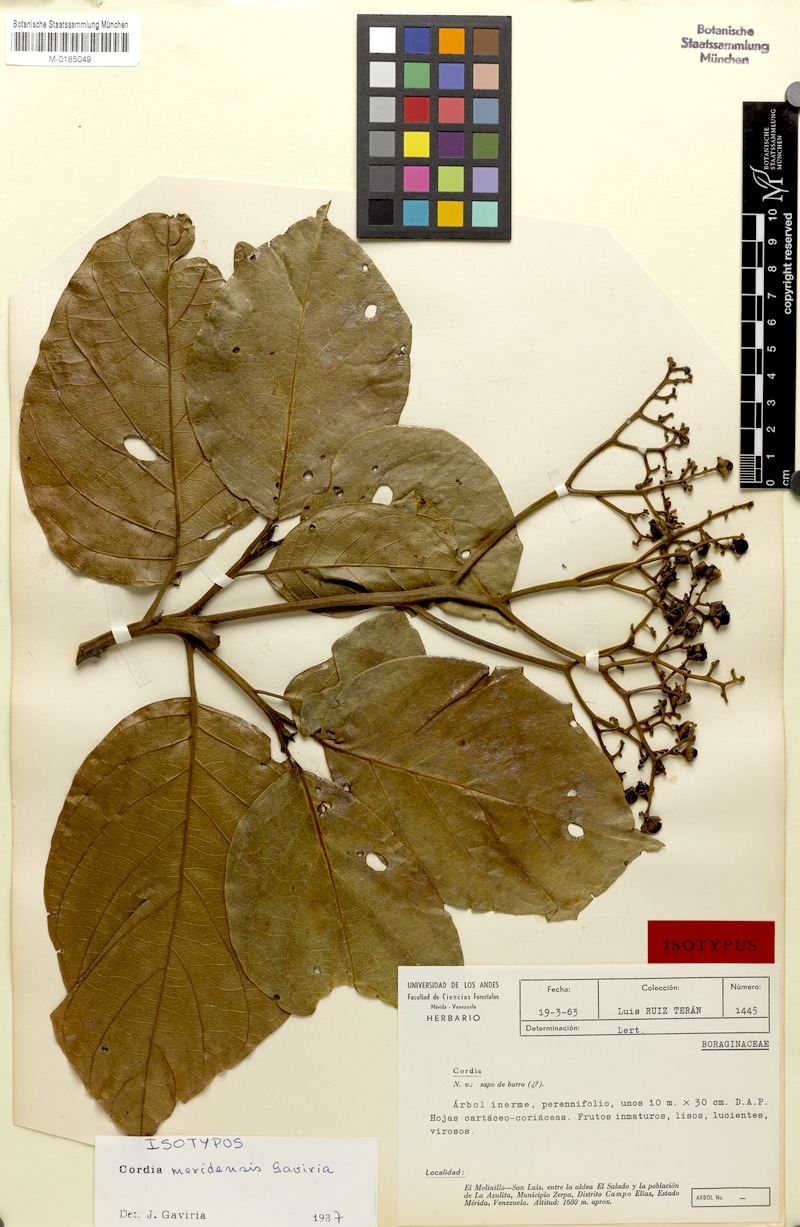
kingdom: Plantae
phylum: Tracheophyta
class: Magnoliopsida
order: Boraginales
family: Cordiaceae
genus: Cordia
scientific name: Cordia meridensis
